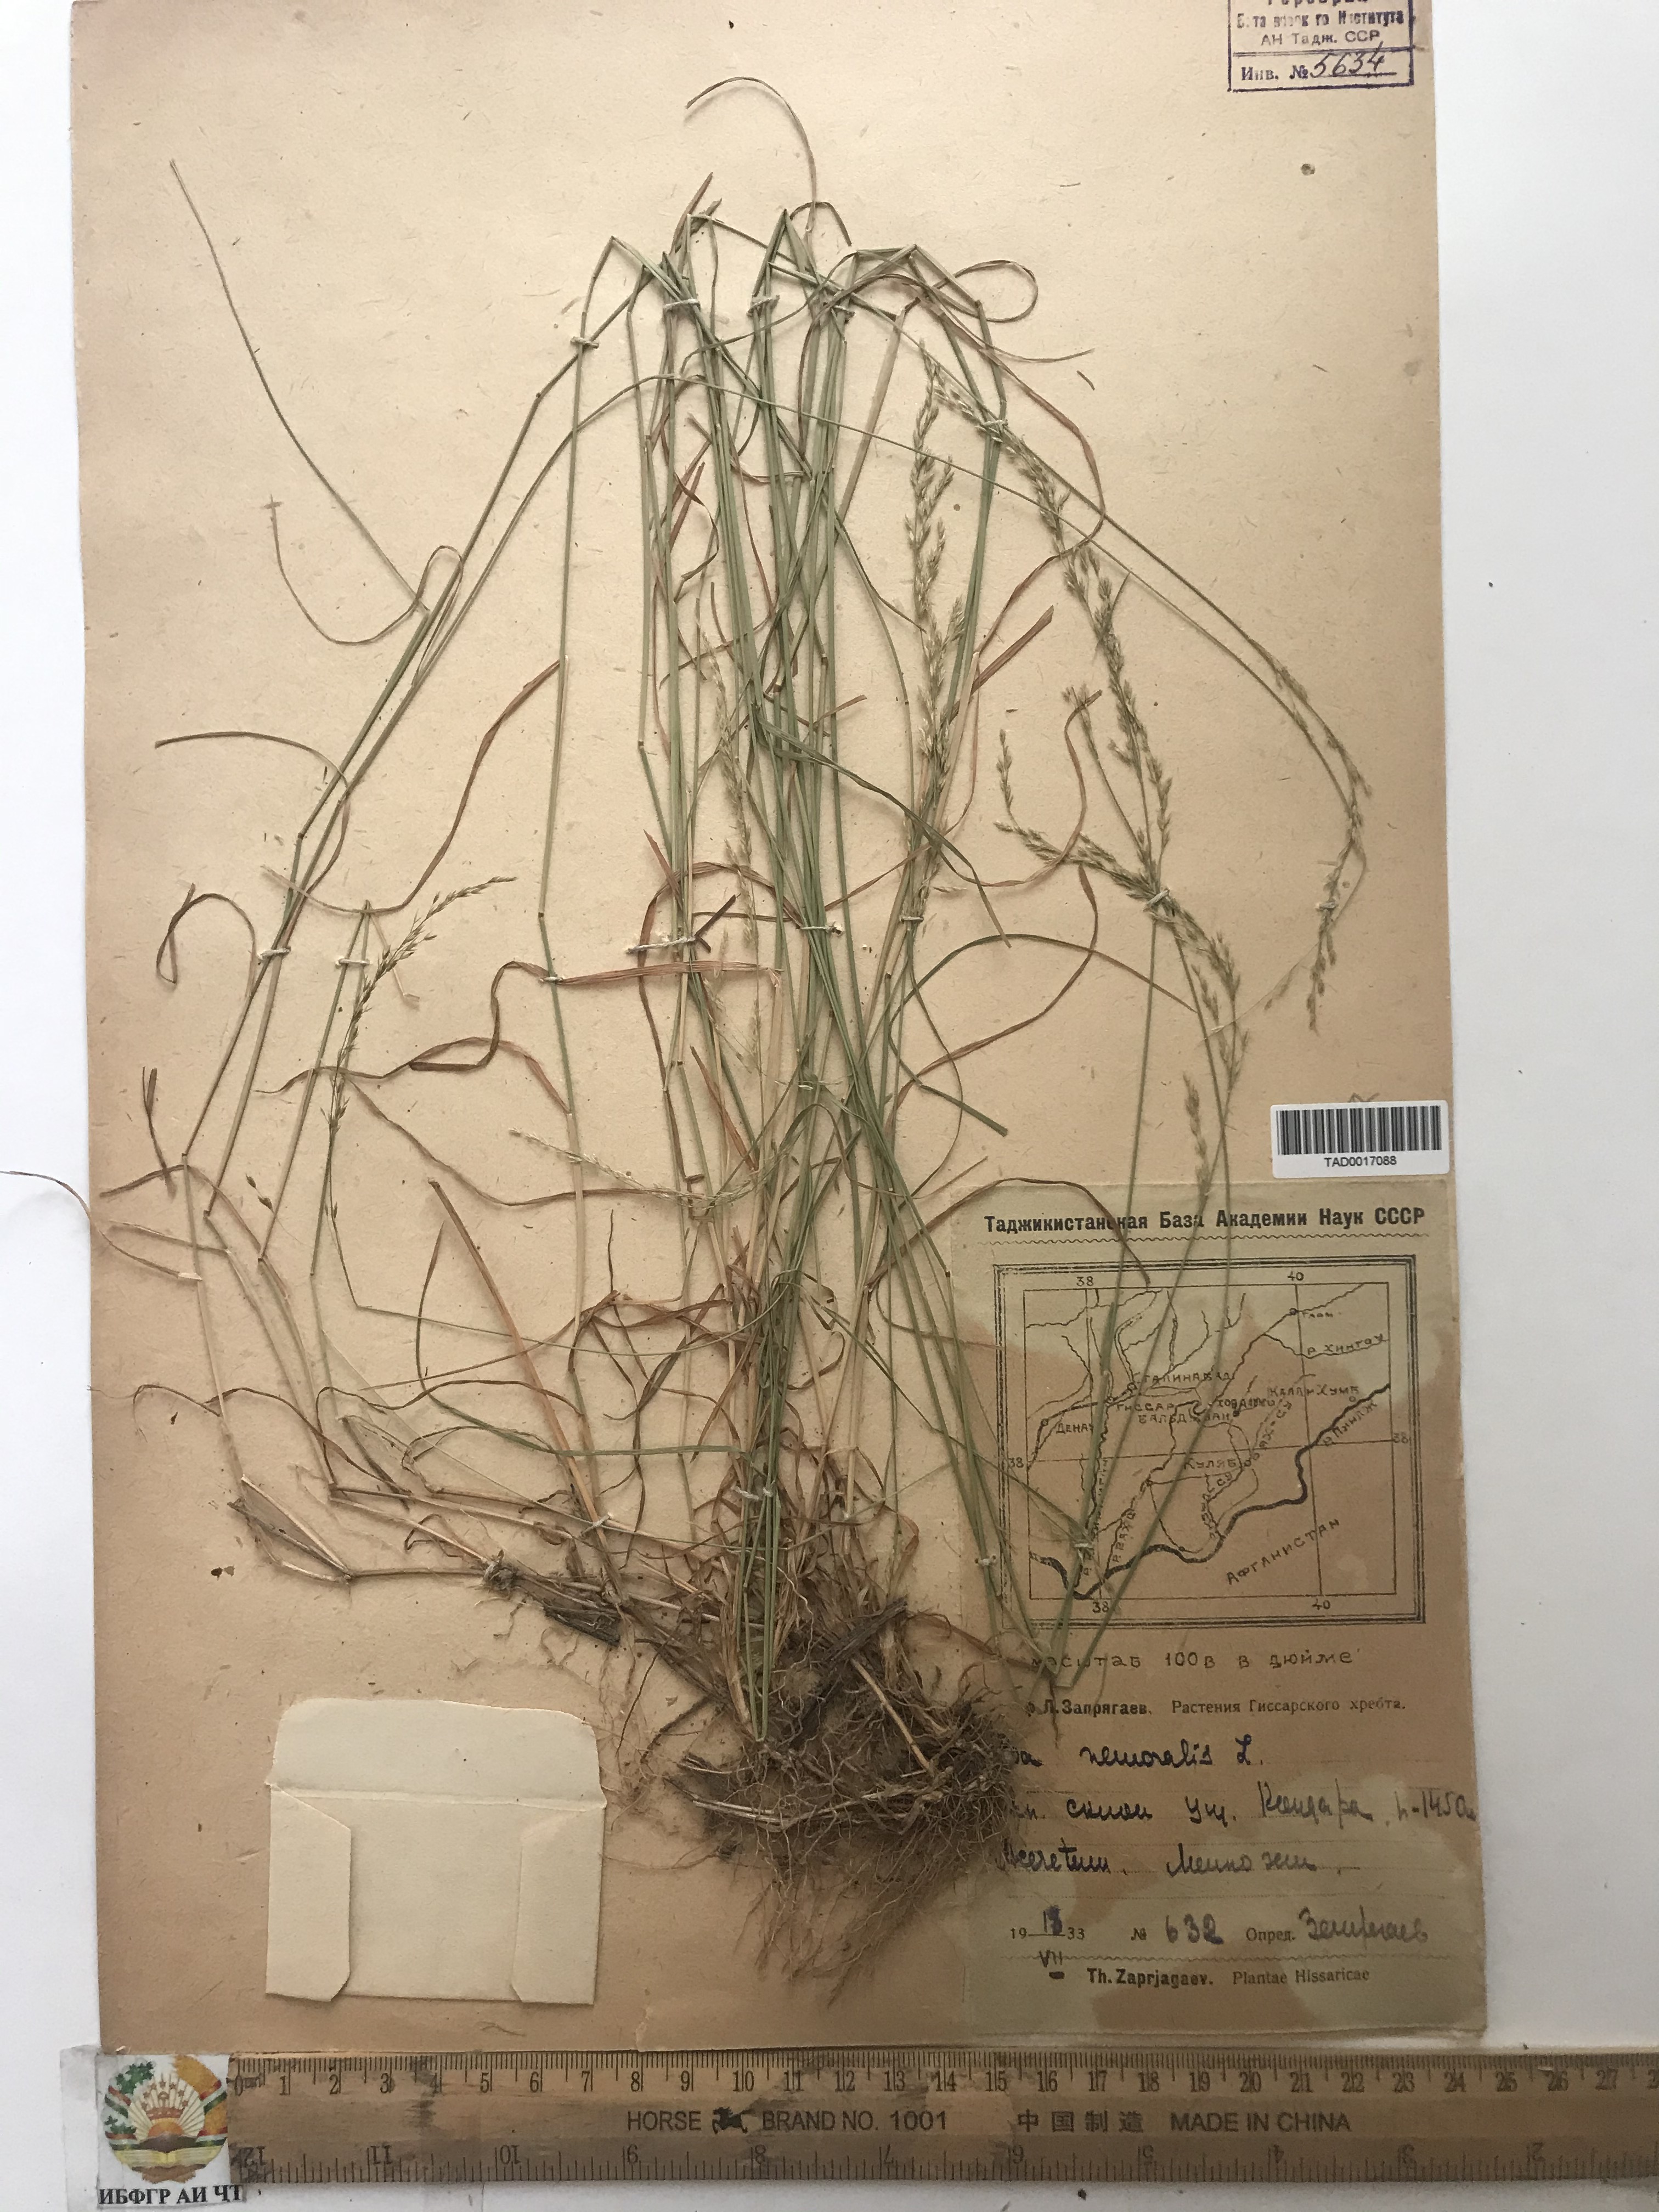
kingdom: Plantae
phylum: Tracheophyta
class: Liliopsida
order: Poales
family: Poaceae
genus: Poa
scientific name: Poa nemoralis
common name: Wood bluegrass
